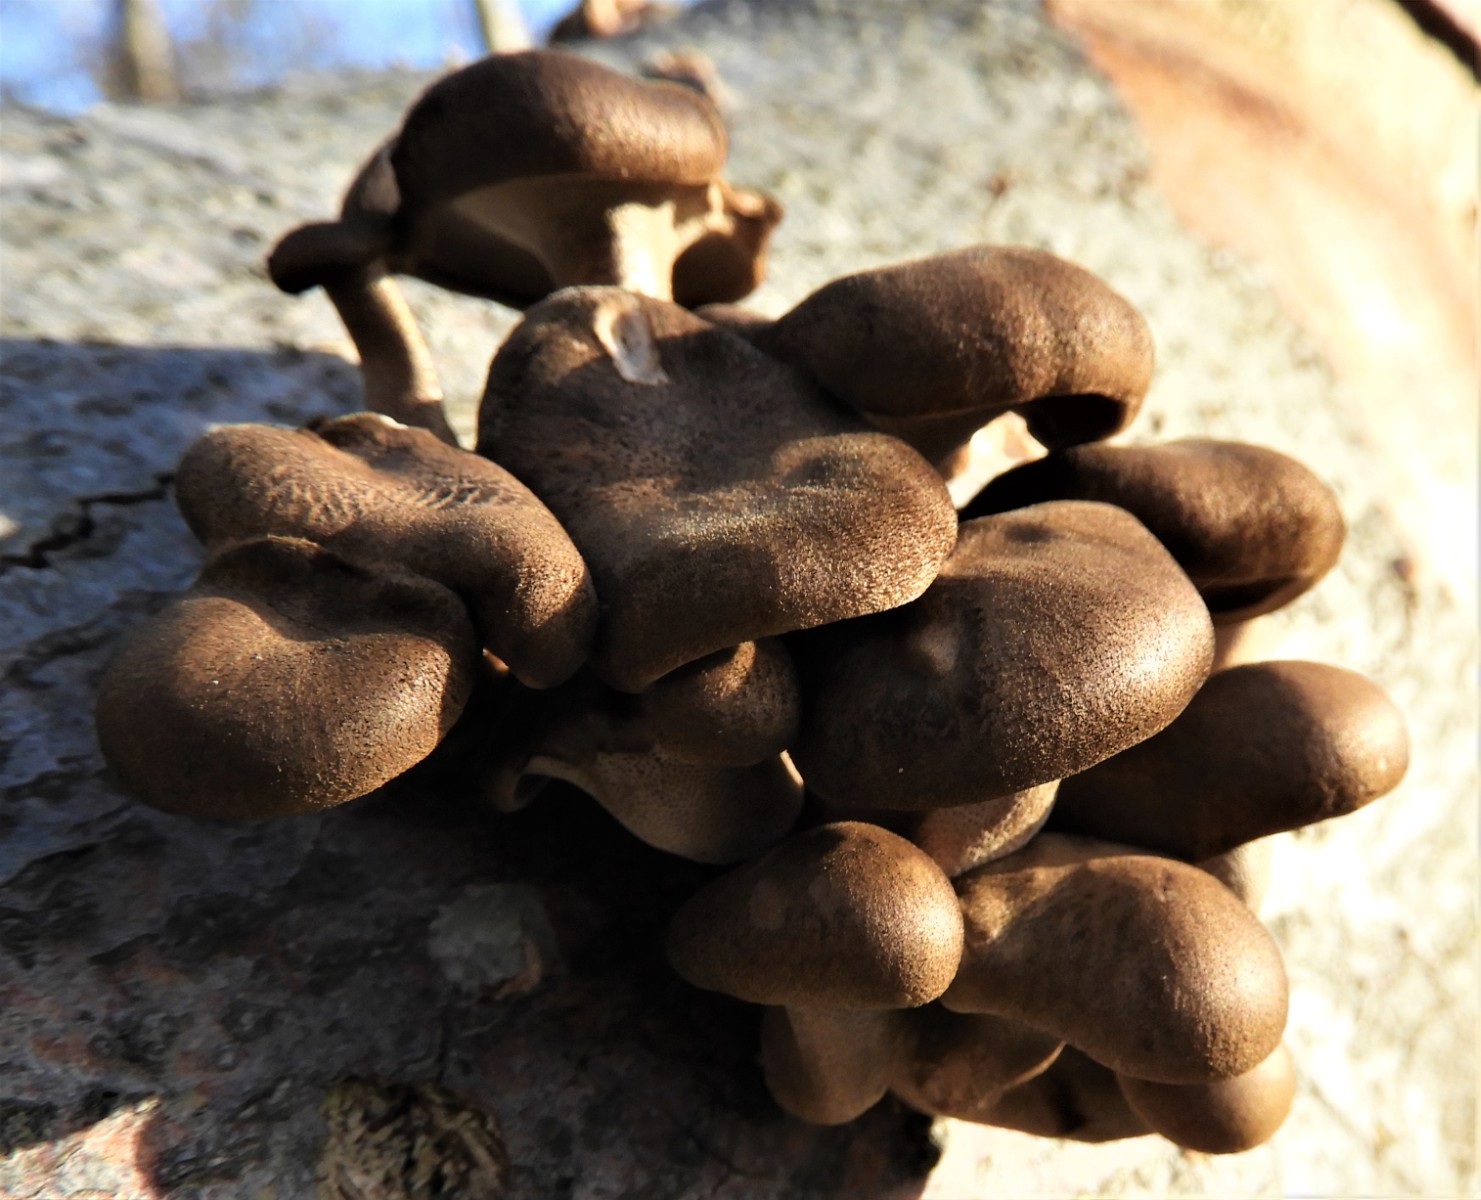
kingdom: Fungi
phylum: Basidiomycota
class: Agaricomycetes
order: Polyporales
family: Polyporaceae
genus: Lentinus
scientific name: Lentinus brumalis
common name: vinter-stilkporesvamp
